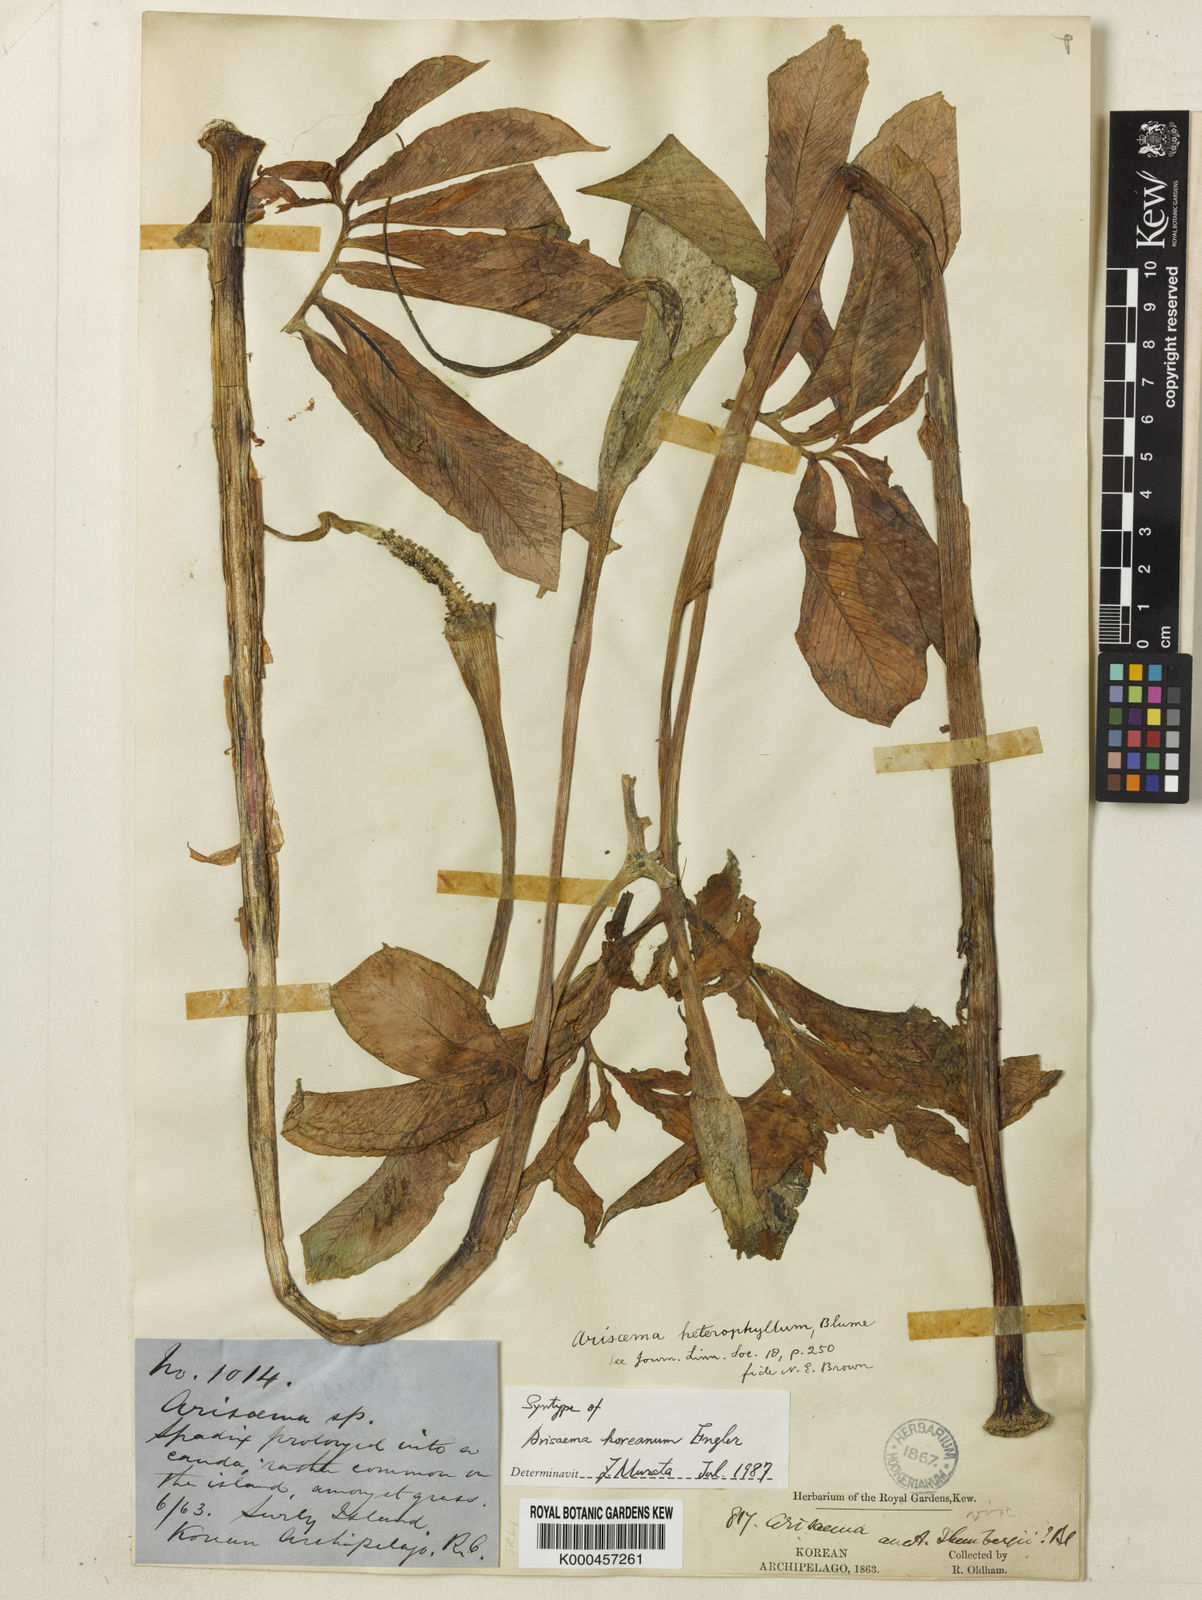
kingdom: Plantae
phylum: Tracheophyta
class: Liliopsida
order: Alismatales
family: Araceae
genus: Arisaema
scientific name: Arisaema heterophyllum
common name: Dancing crane cobra lily
